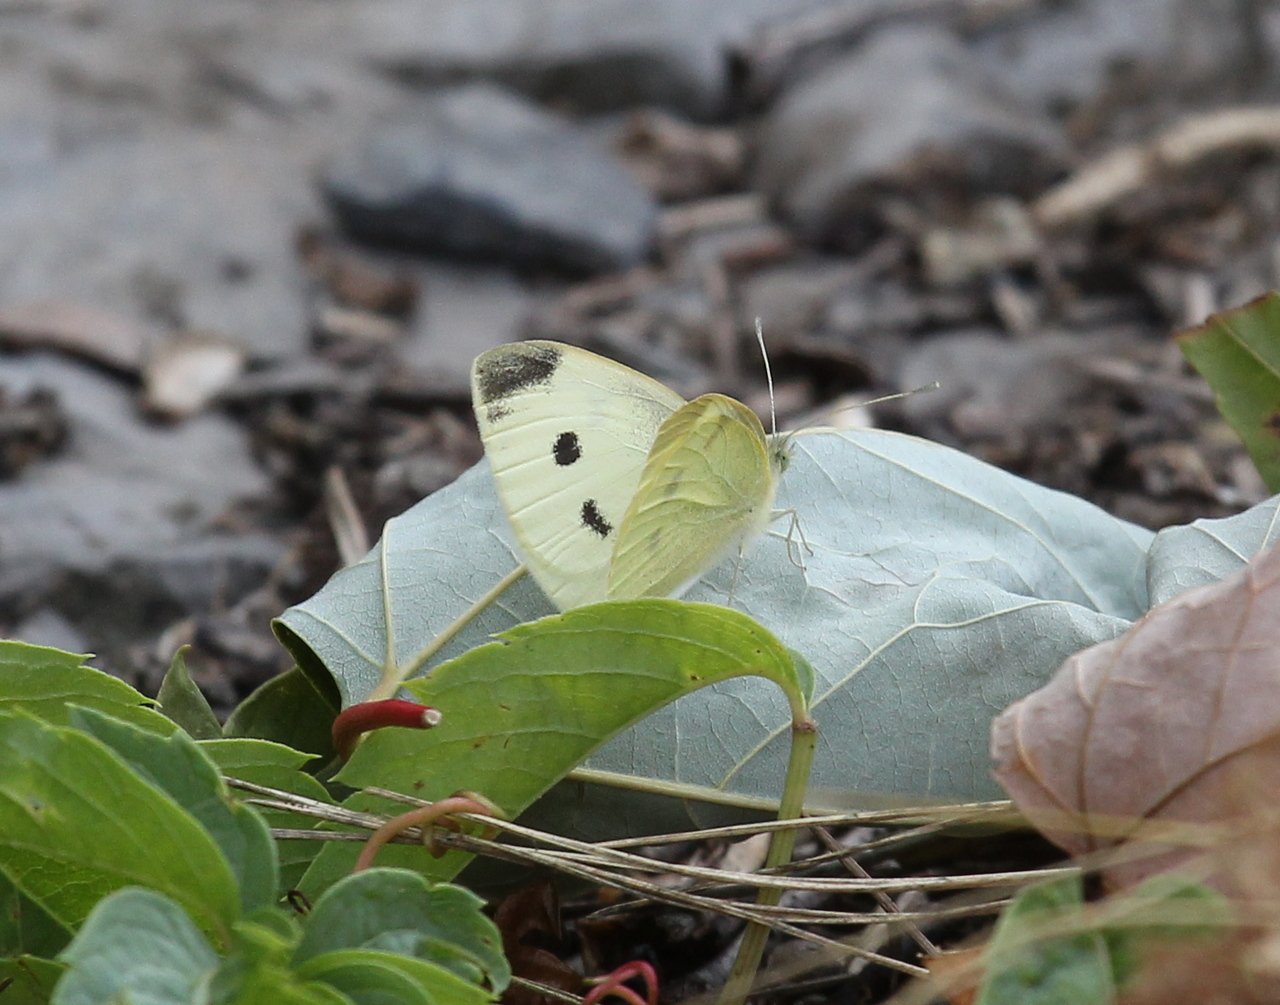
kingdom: Animalia
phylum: Arthropoda
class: Insecta
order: Lepidoptera
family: Pieridae
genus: Pieris
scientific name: Pieris rapae
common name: Cabbage White
